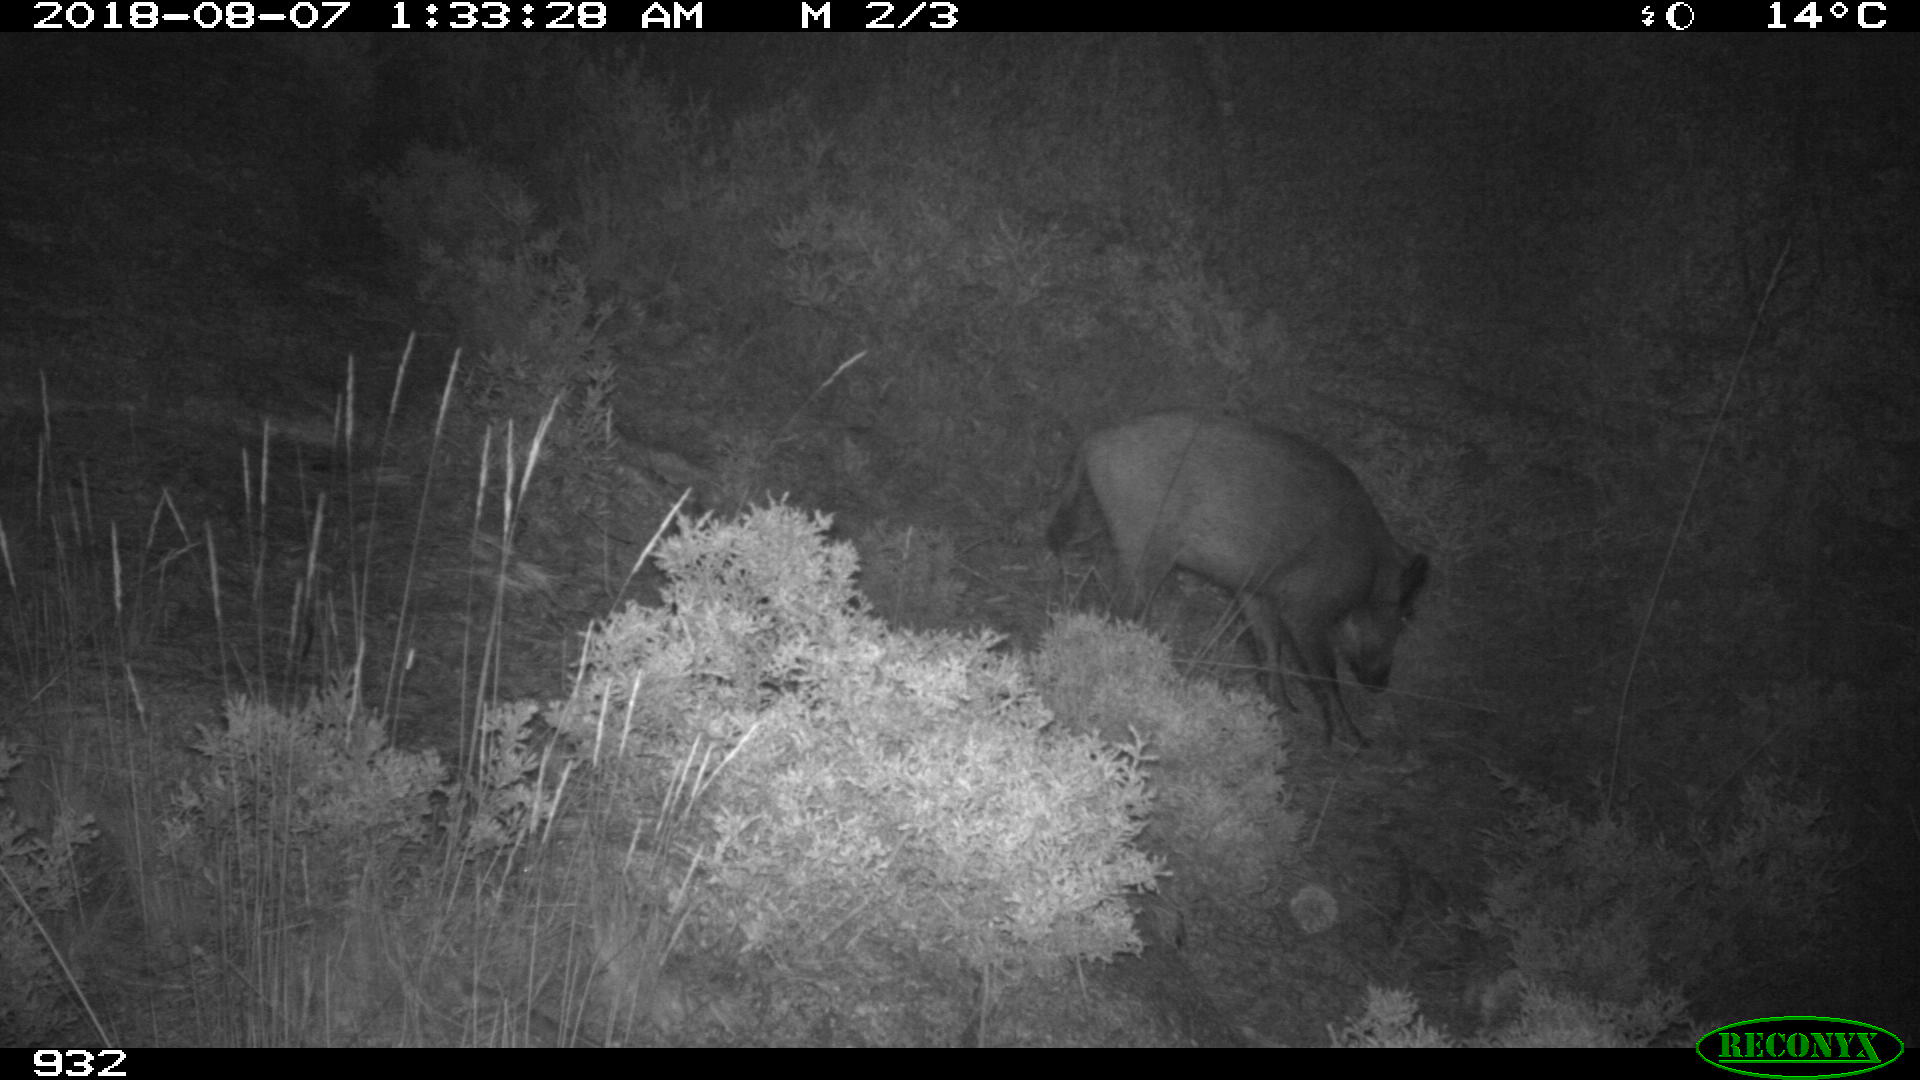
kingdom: Animalia
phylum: Chordata
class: Mammalia
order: Artiodactyla
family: Suidae
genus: Sus
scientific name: Sus scrofa
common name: Wild boar
